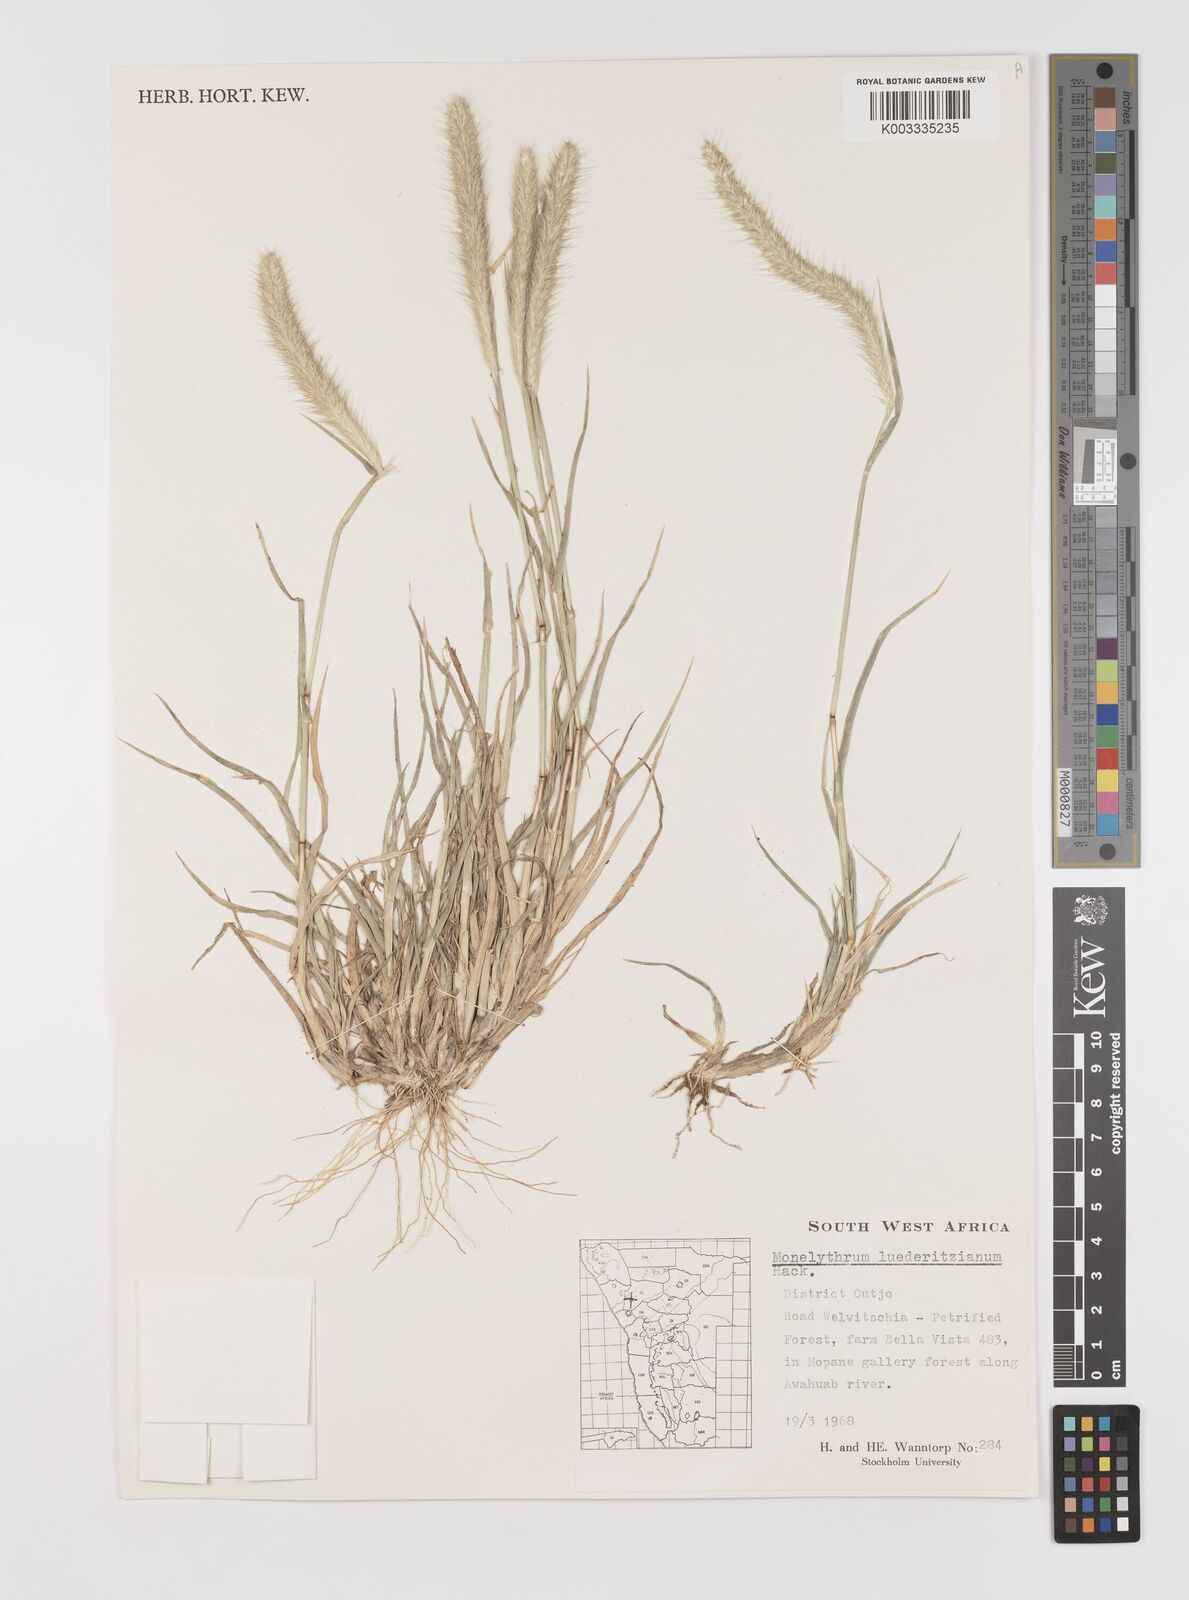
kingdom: Plantae
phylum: Tracheophyta
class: Liliopsida
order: Poales
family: Poaceae
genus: Monelytrum
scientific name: Monelytrum luederitzianum
